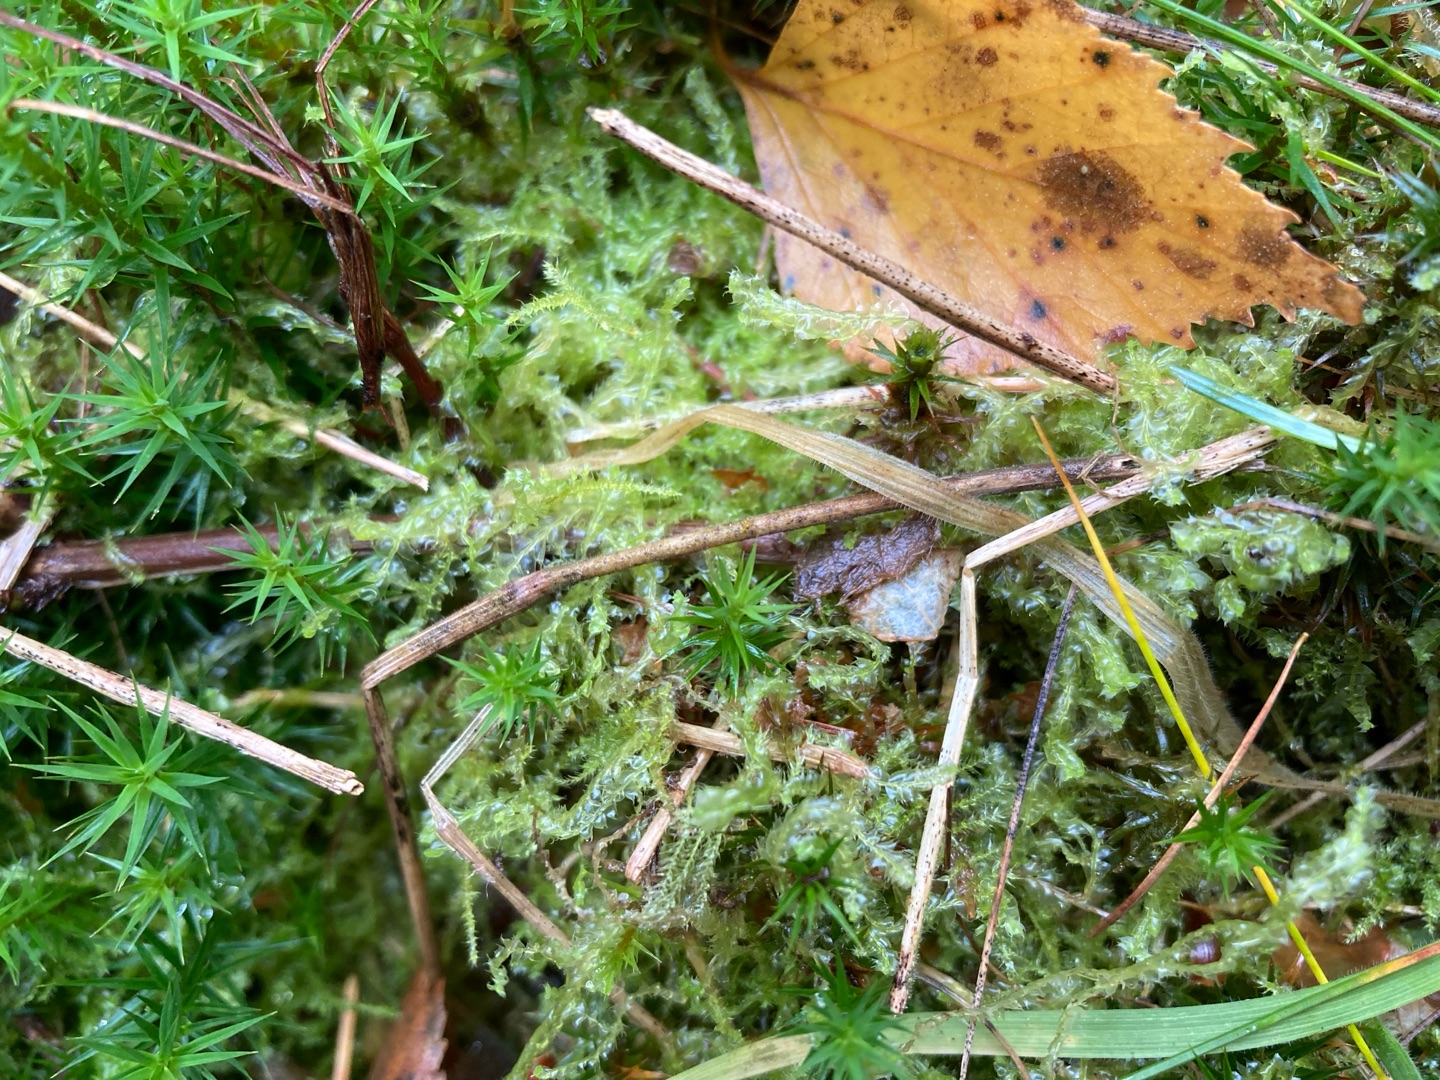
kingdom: Plantae
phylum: Marchantiophyta
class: Jungermanniopsida
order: Jungermanniales
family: Lophocoleaceae
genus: Lophocolea
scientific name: Lophocolea bidentata
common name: Sylspidset kamsvøb
